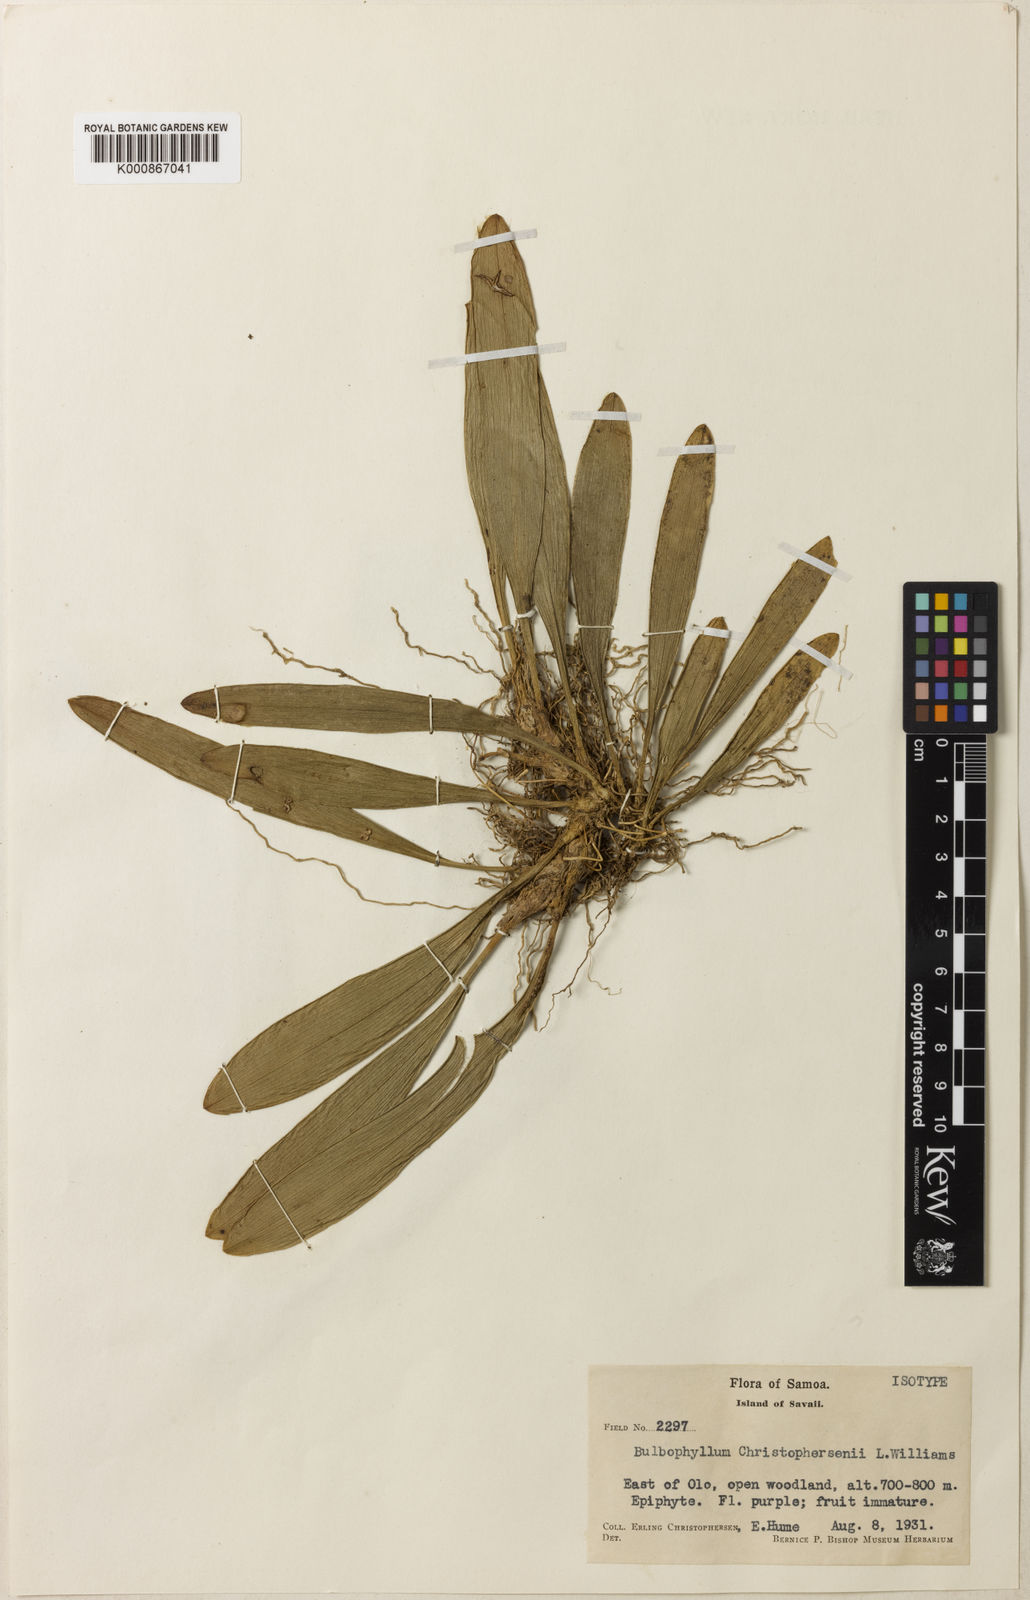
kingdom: Plantae
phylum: Tracheophyta
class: Liliopsida
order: Asparagales
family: Orchidaceae
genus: Bulbophyllum
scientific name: Bulbophyllum samoanum
